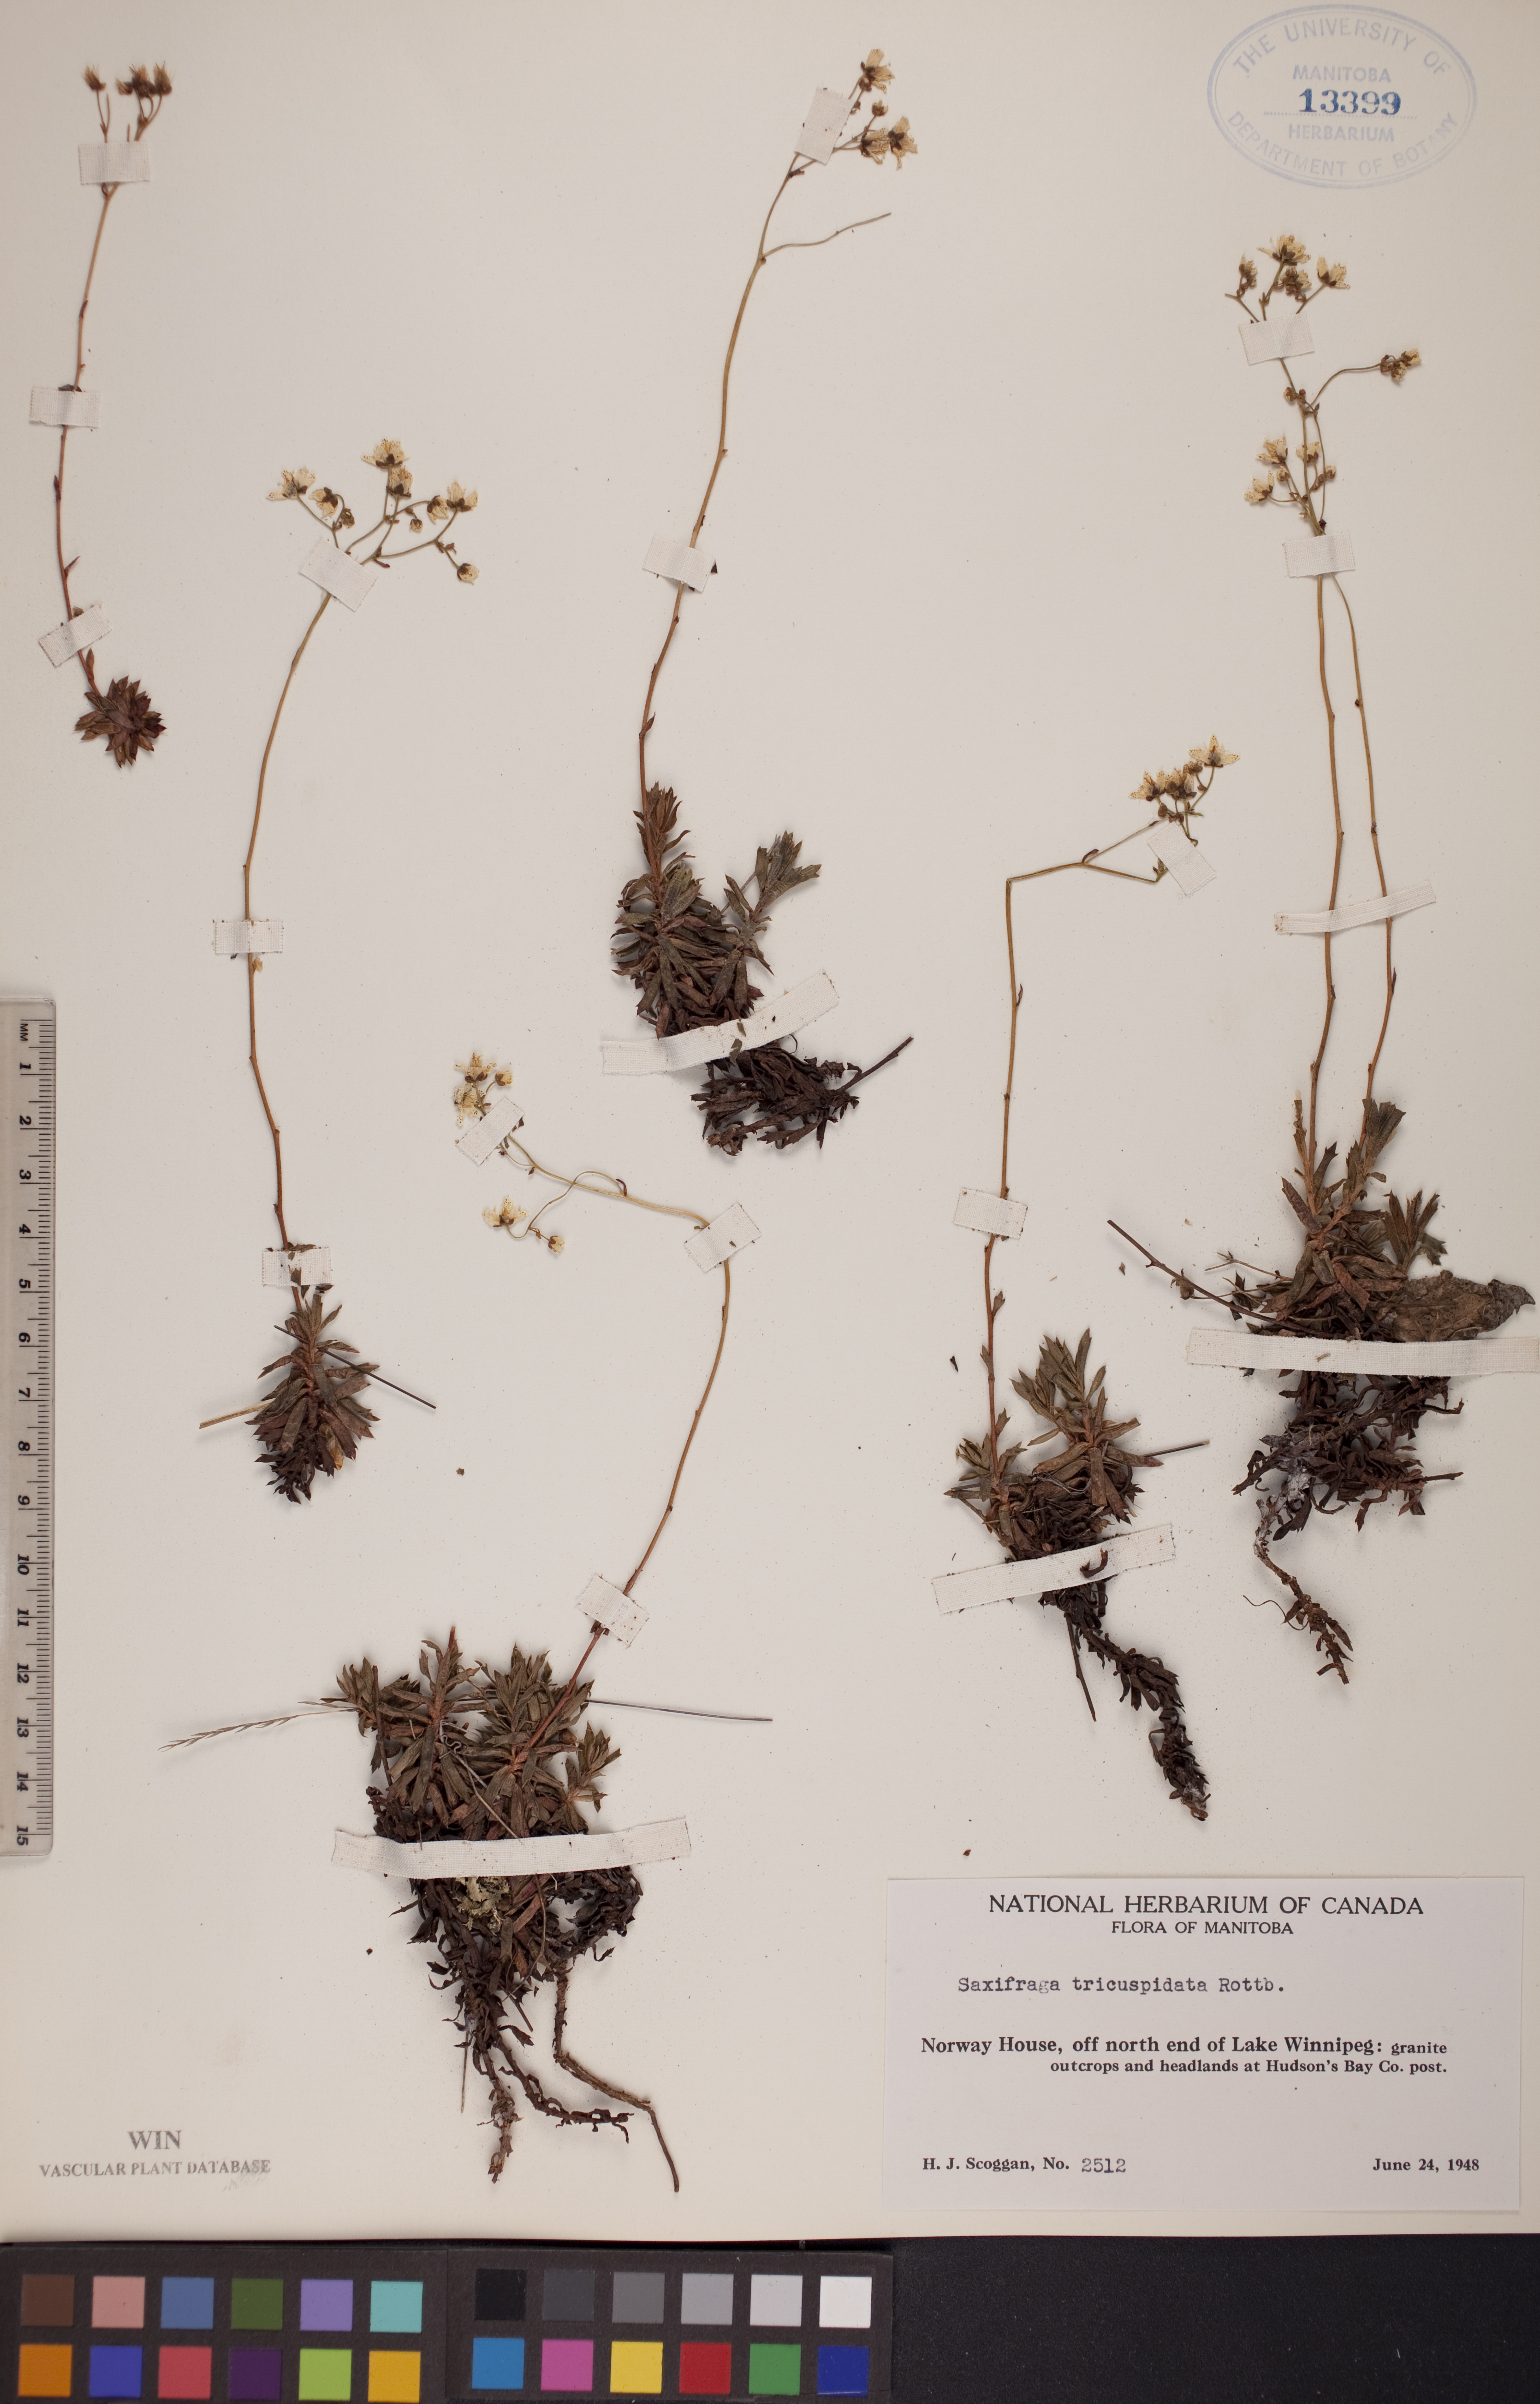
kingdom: Plantae
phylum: Tracheophyta
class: Magnoliopsida
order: Saxifragales
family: Saxifragaceae
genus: Saxifraga
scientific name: Saxifraga tricuspidata
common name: Prickly saxifrage
